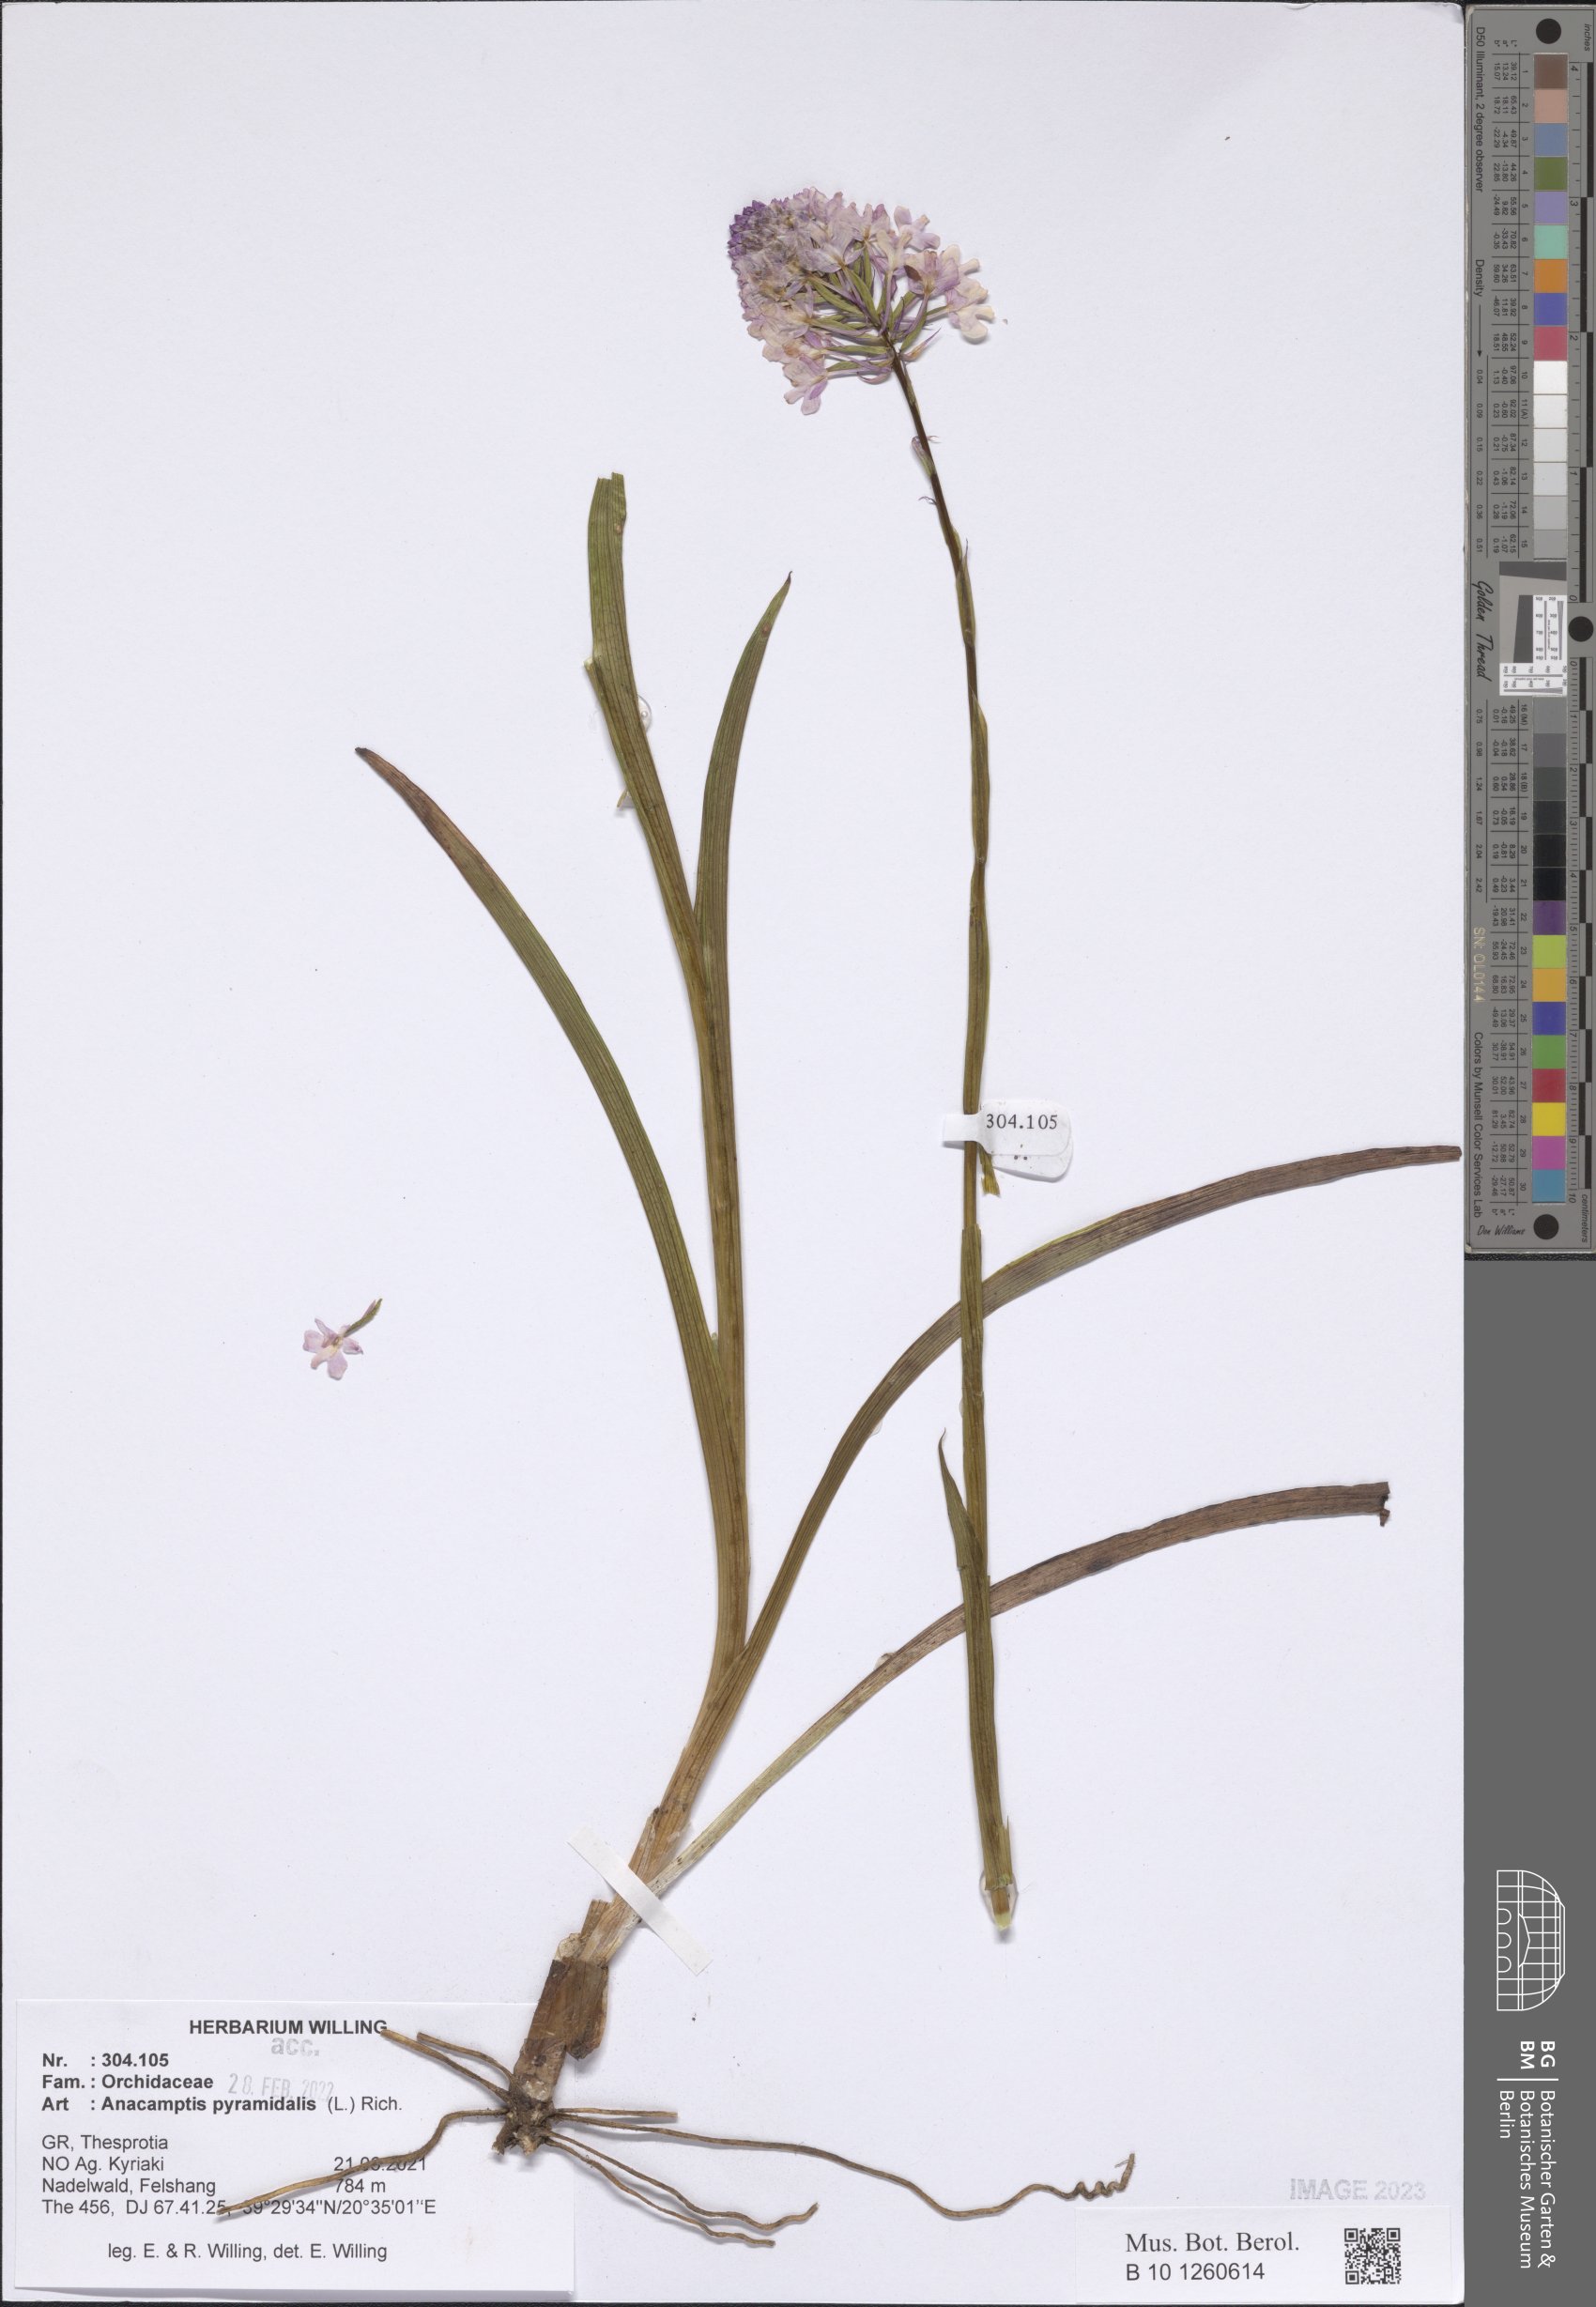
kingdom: Plantae
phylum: Tracheophyta
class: Liliopsida
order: Asparagales
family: Orchidaceae
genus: Anacamptis
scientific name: Anacamptis pyramidalis
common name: Pyramidal orchid
